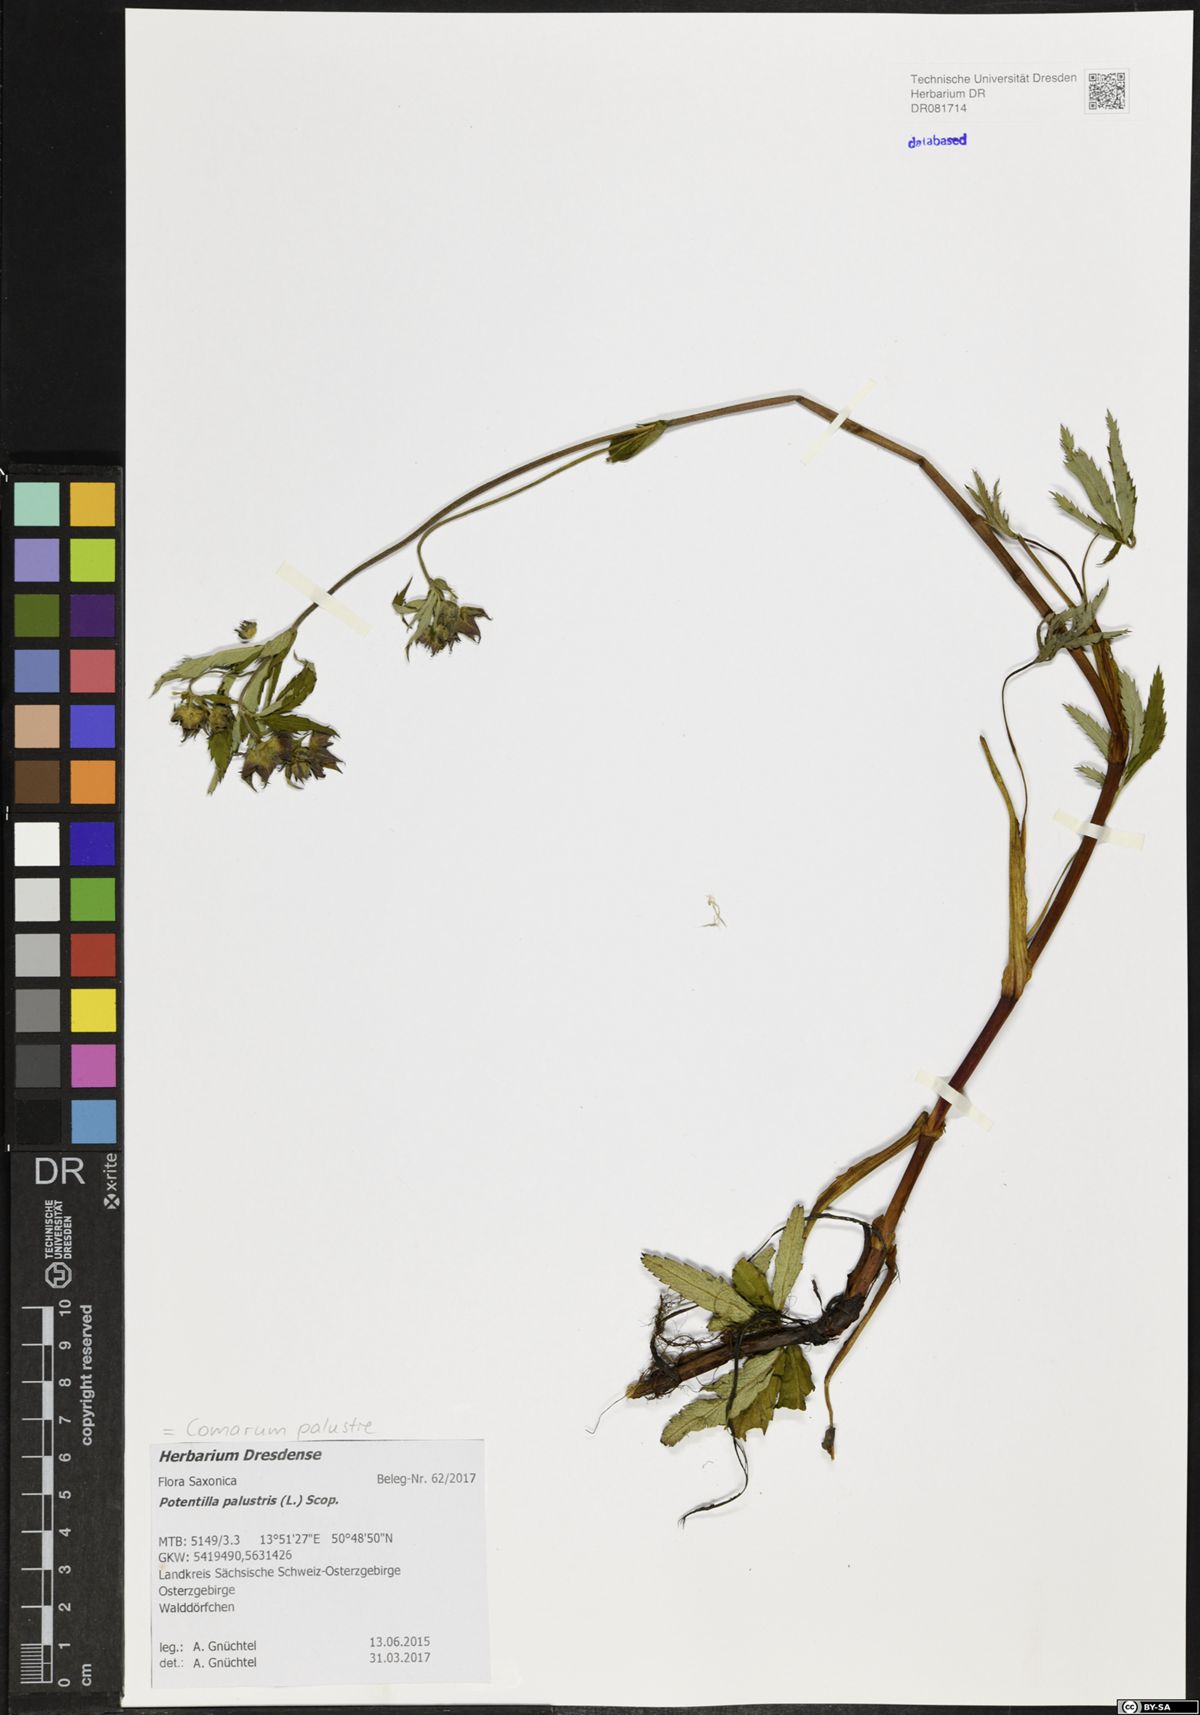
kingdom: Plantae
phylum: Tracheophyta
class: Magnoliopsida
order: Rosales
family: Rosaceae
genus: Comarum
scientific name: Comarum palustre
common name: Marsh cinquefoil
